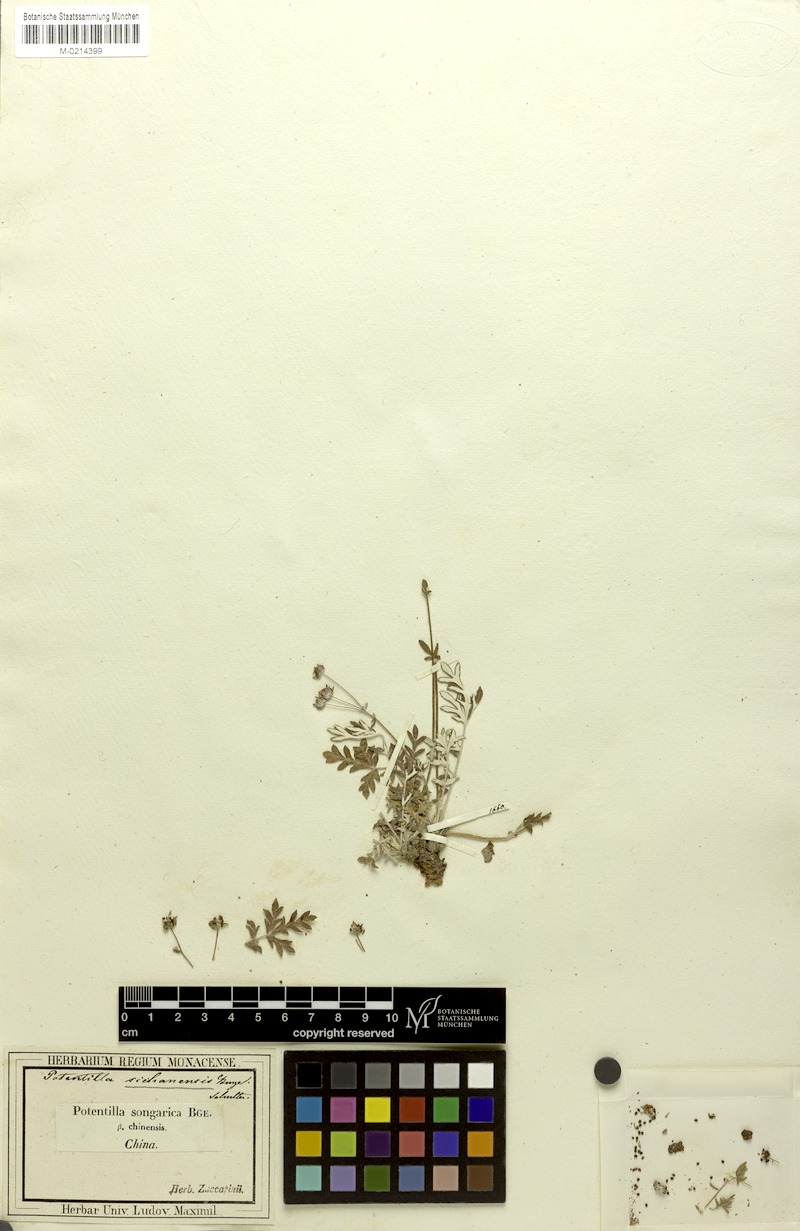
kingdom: Plantae
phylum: Tracheophyta
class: Magnoliopsida
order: Rosales
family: Rosaceae
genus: Potentilla
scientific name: Potentilla sischanensis
